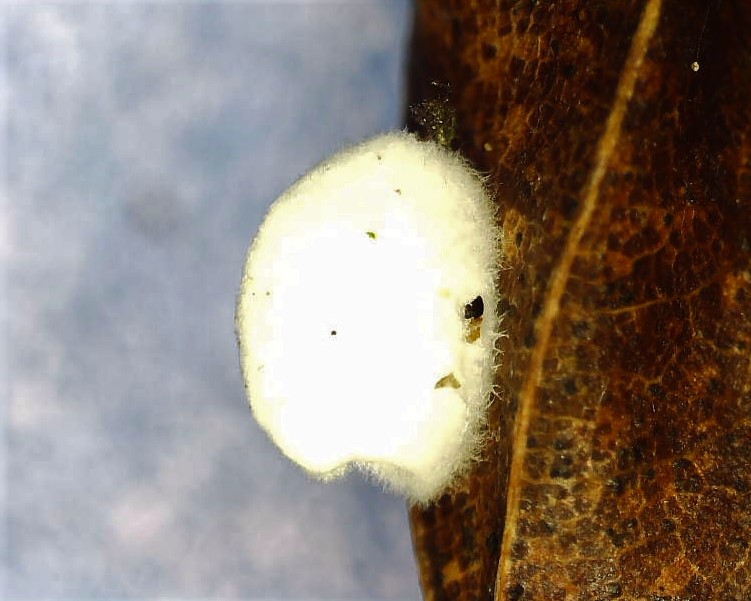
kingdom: Fungi
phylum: Basidiomycota
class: Agaricomycetes
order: Agaricales
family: Crepidotaceae
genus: Crepidotus
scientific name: Crepidotus
